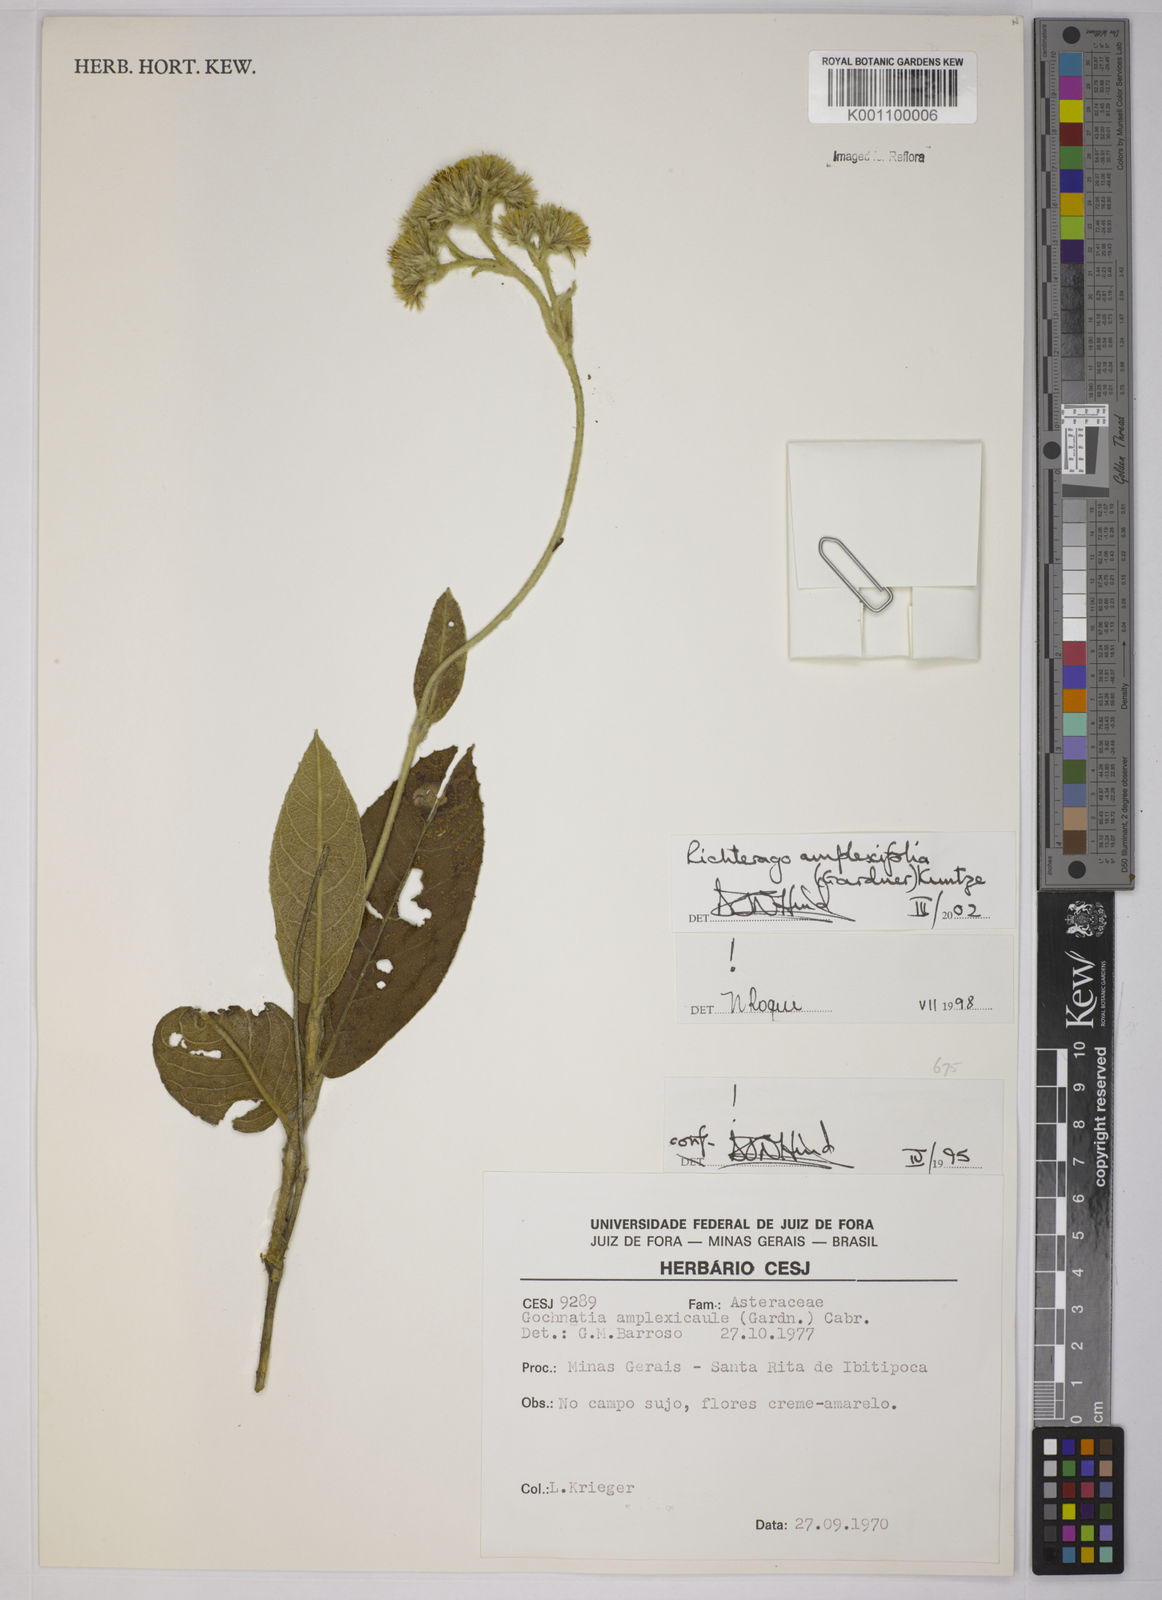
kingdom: Plantae
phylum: Tracheophyta
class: Magnoliopsida
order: Asterales
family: Asteraceae
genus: Richterago
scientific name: Richterago amplexifolia
